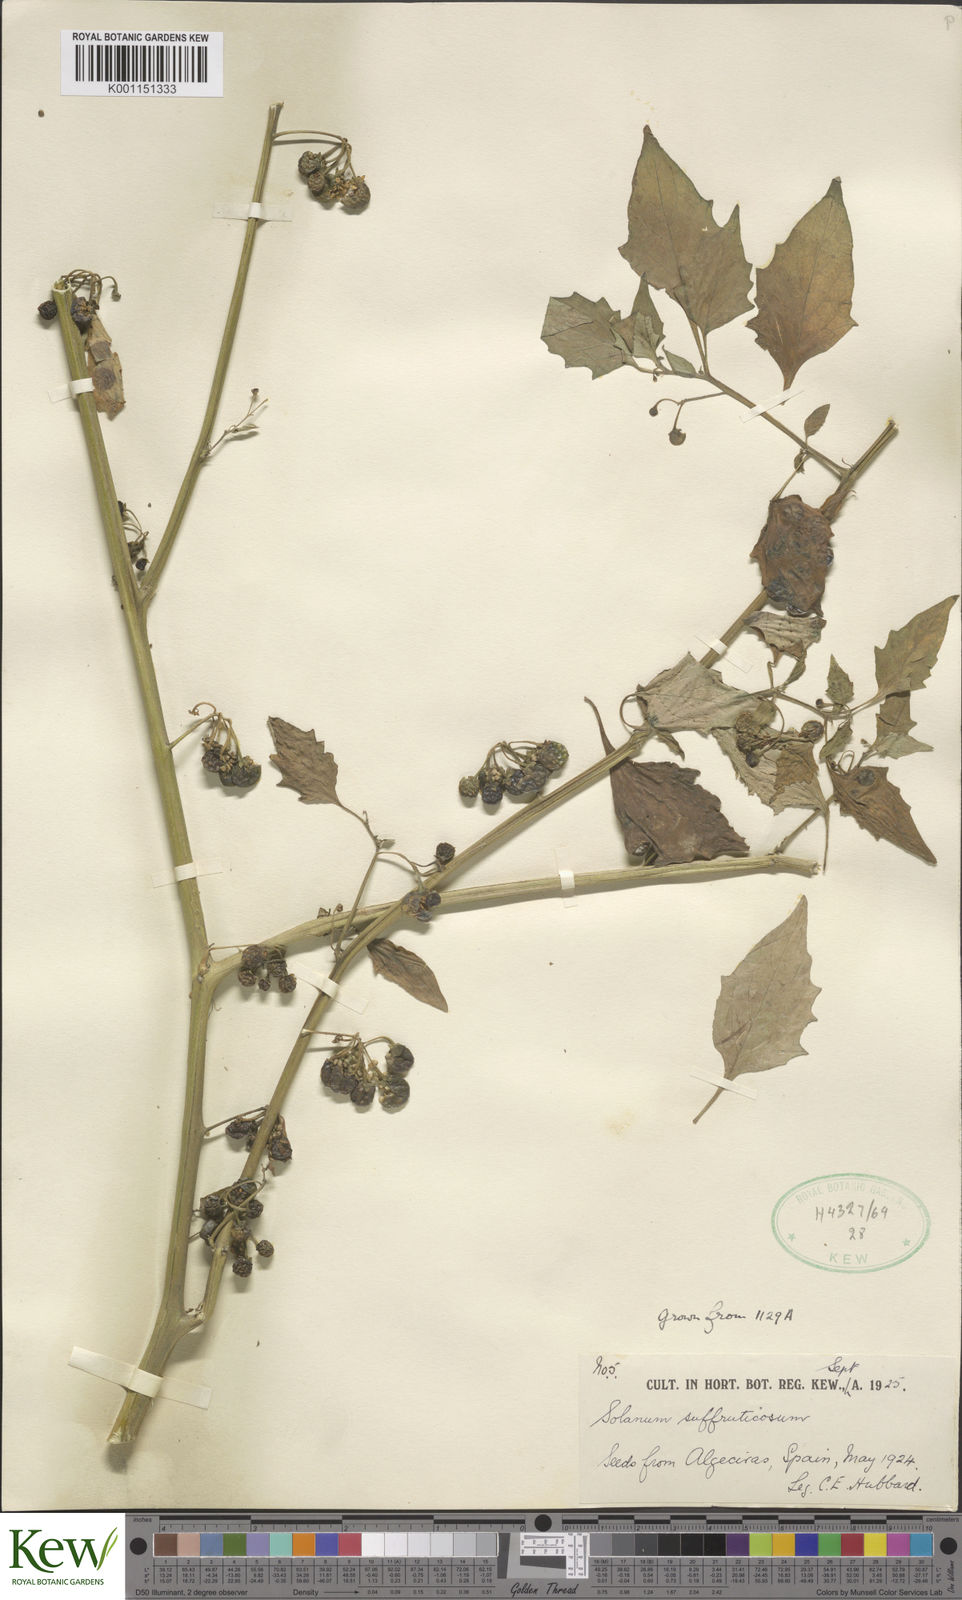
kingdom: Plantae
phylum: Tracheophyta
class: Magnoliopsida
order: Solanales
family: Solanaceae
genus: Solanum
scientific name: Solanum nigrum
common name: Black nightshade
